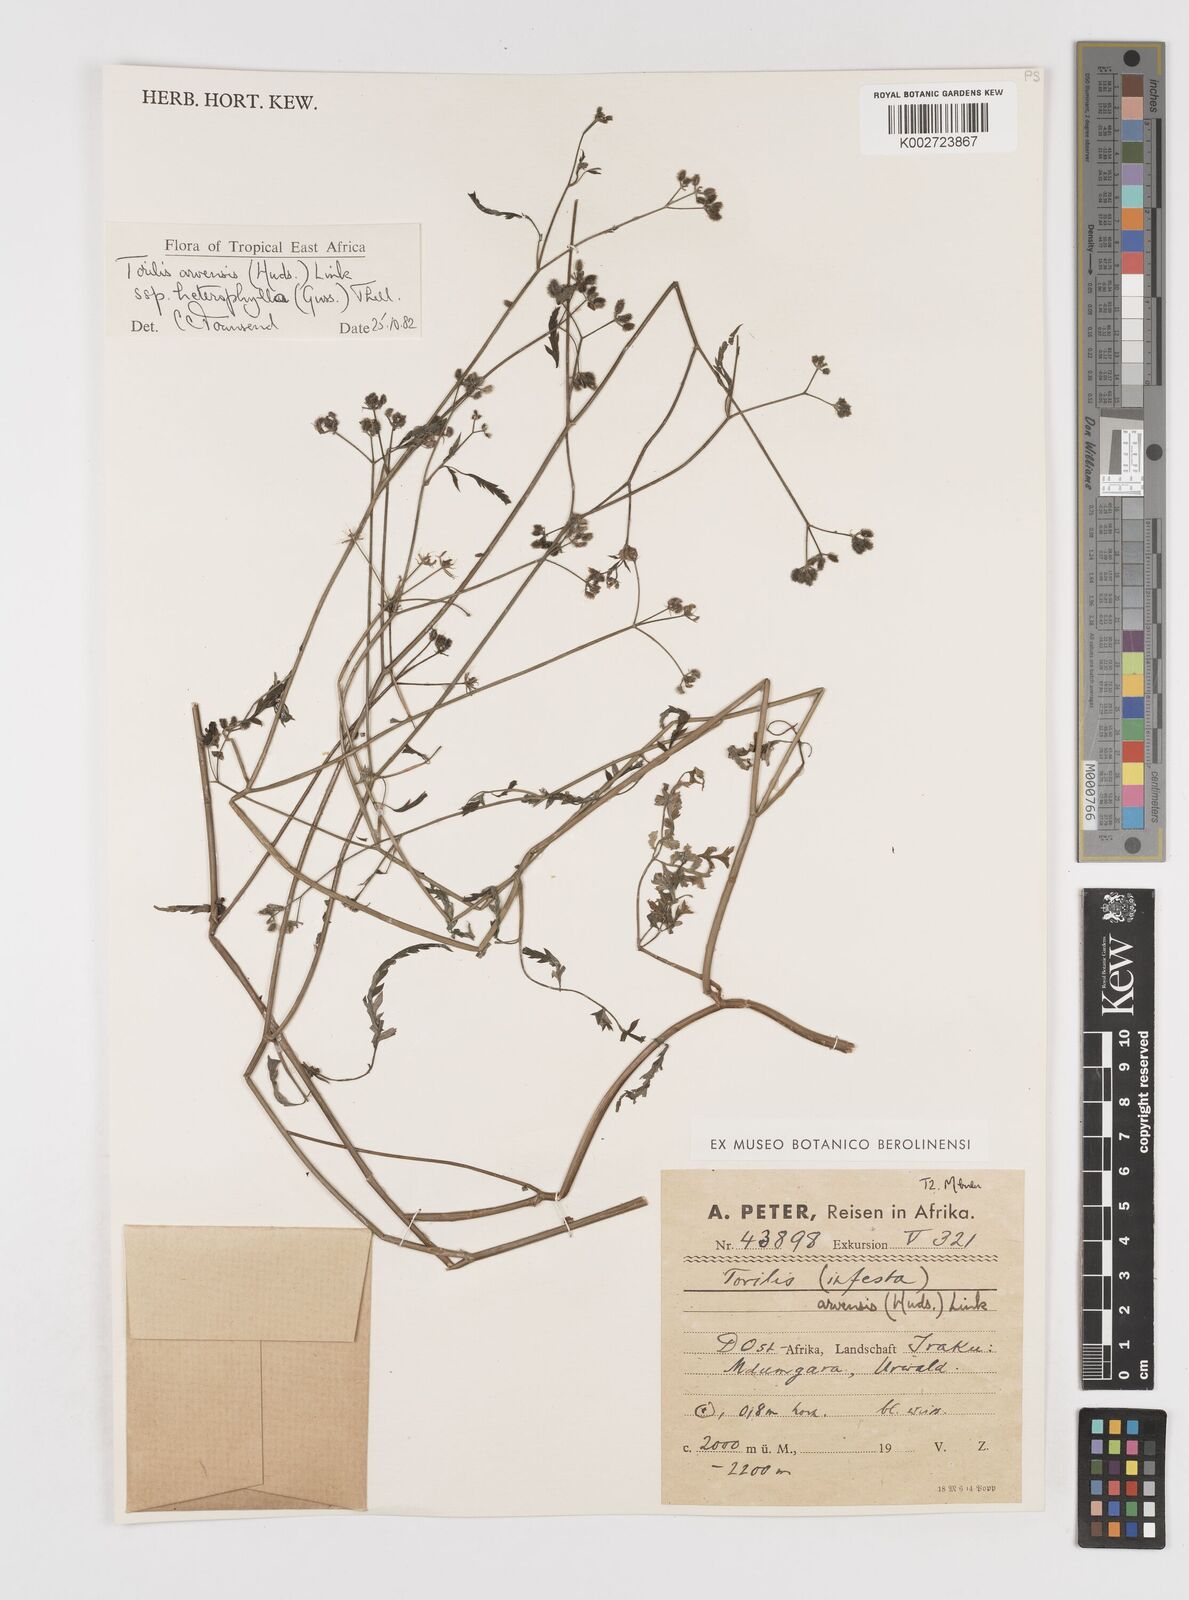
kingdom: Plantae
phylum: Tracheophyta
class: Magnoliopsida
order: Apiales
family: Apiaceae
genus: Torilis
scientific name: Torilis arvensis
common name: Spreading hedge-parsley
